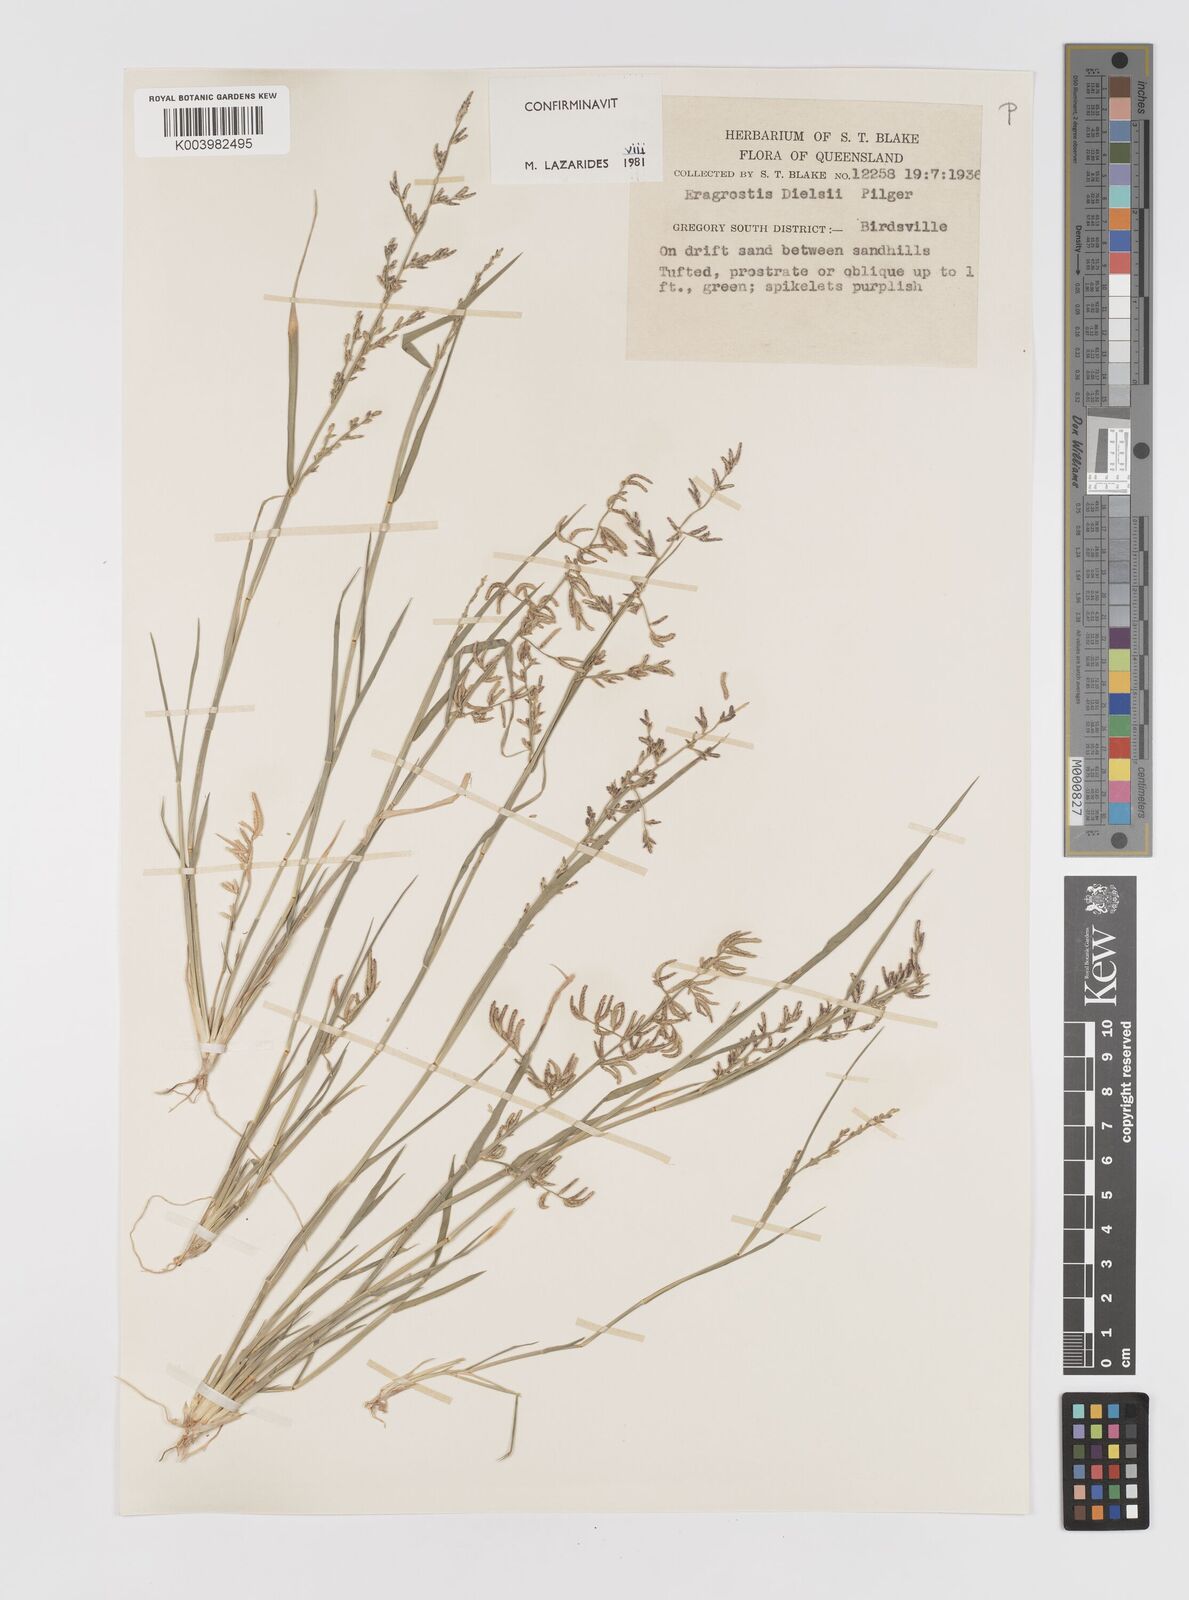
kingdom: Plantae
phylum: Tracheophyta
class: Liliopsida
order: Poales
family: Poaceae
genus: Eragrostis
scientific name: Eragrostis dielsii
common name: Lovegrass
